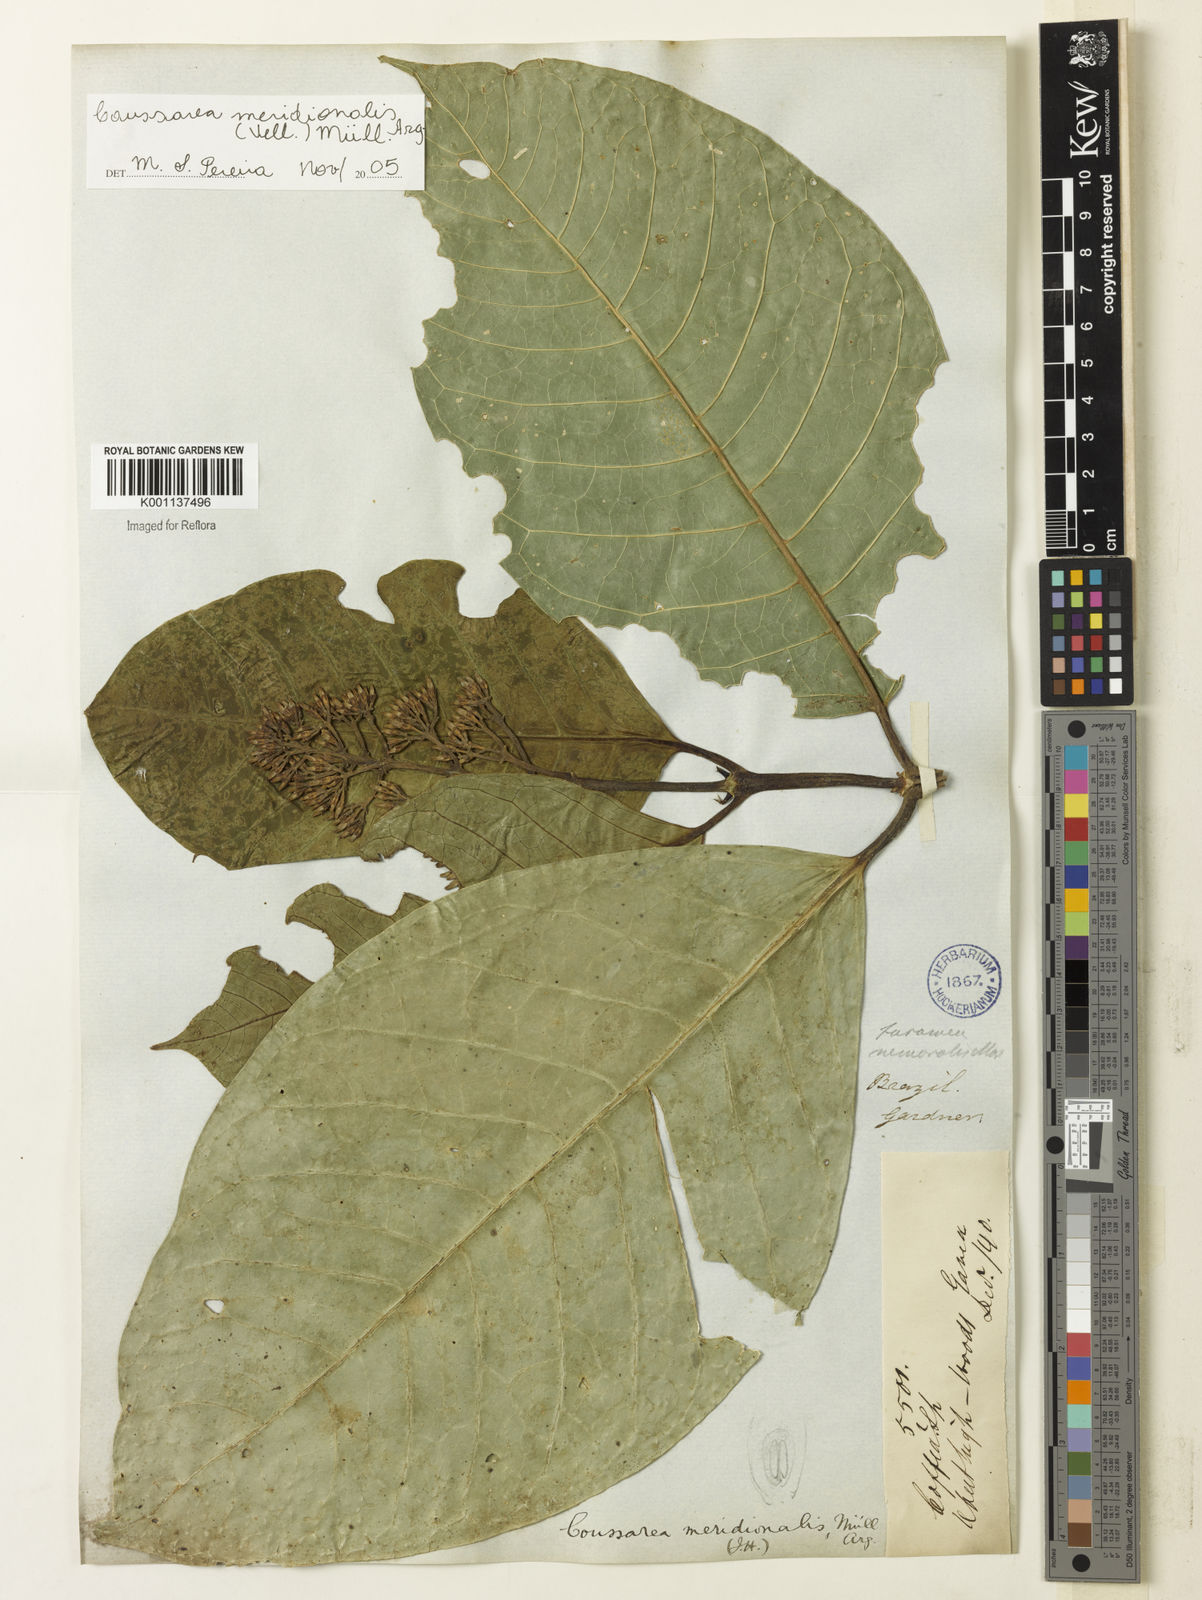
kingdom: Plantae
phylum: Tracheophyta
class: Magnoliopsida
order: Gentianales
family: Rubiaceae
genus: Coussarea
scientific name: Coussarea
